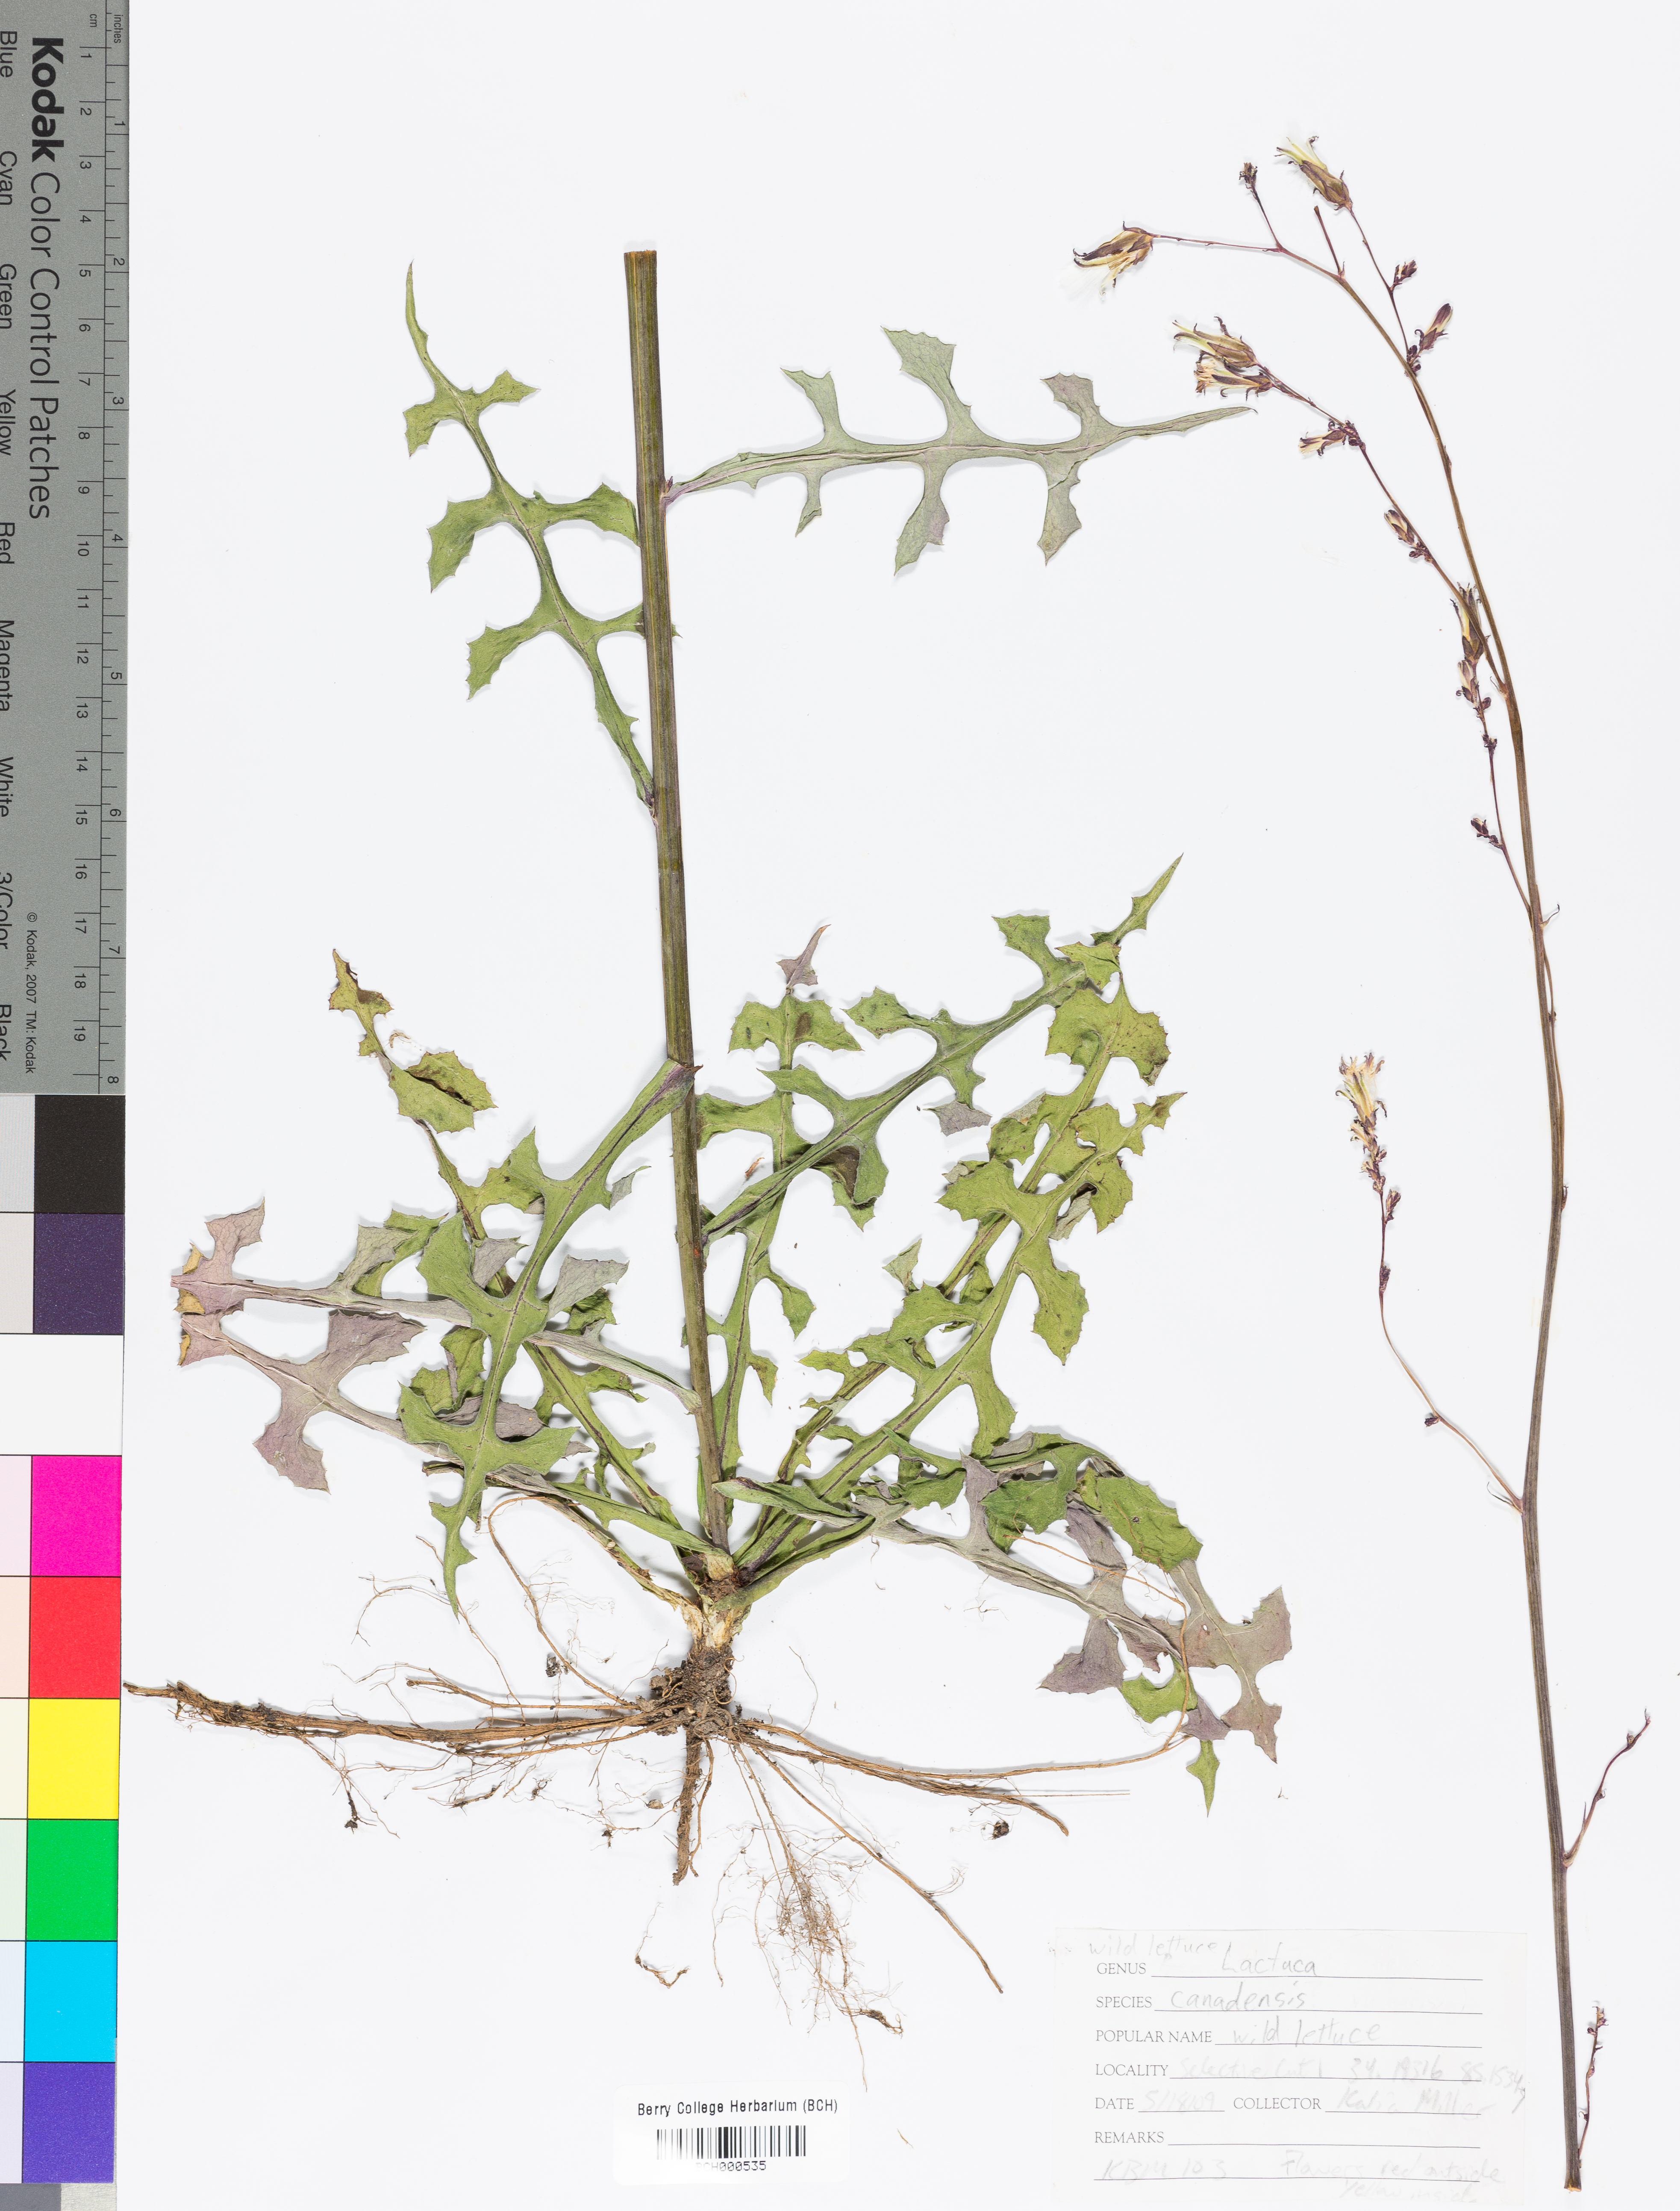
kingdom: Plantae
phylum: Tracheophyta
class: Magnoliopsida
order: Asterales
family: Asteraceae
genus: Lactuca
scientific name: Lactuca canadensis
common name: Canada lettuce
